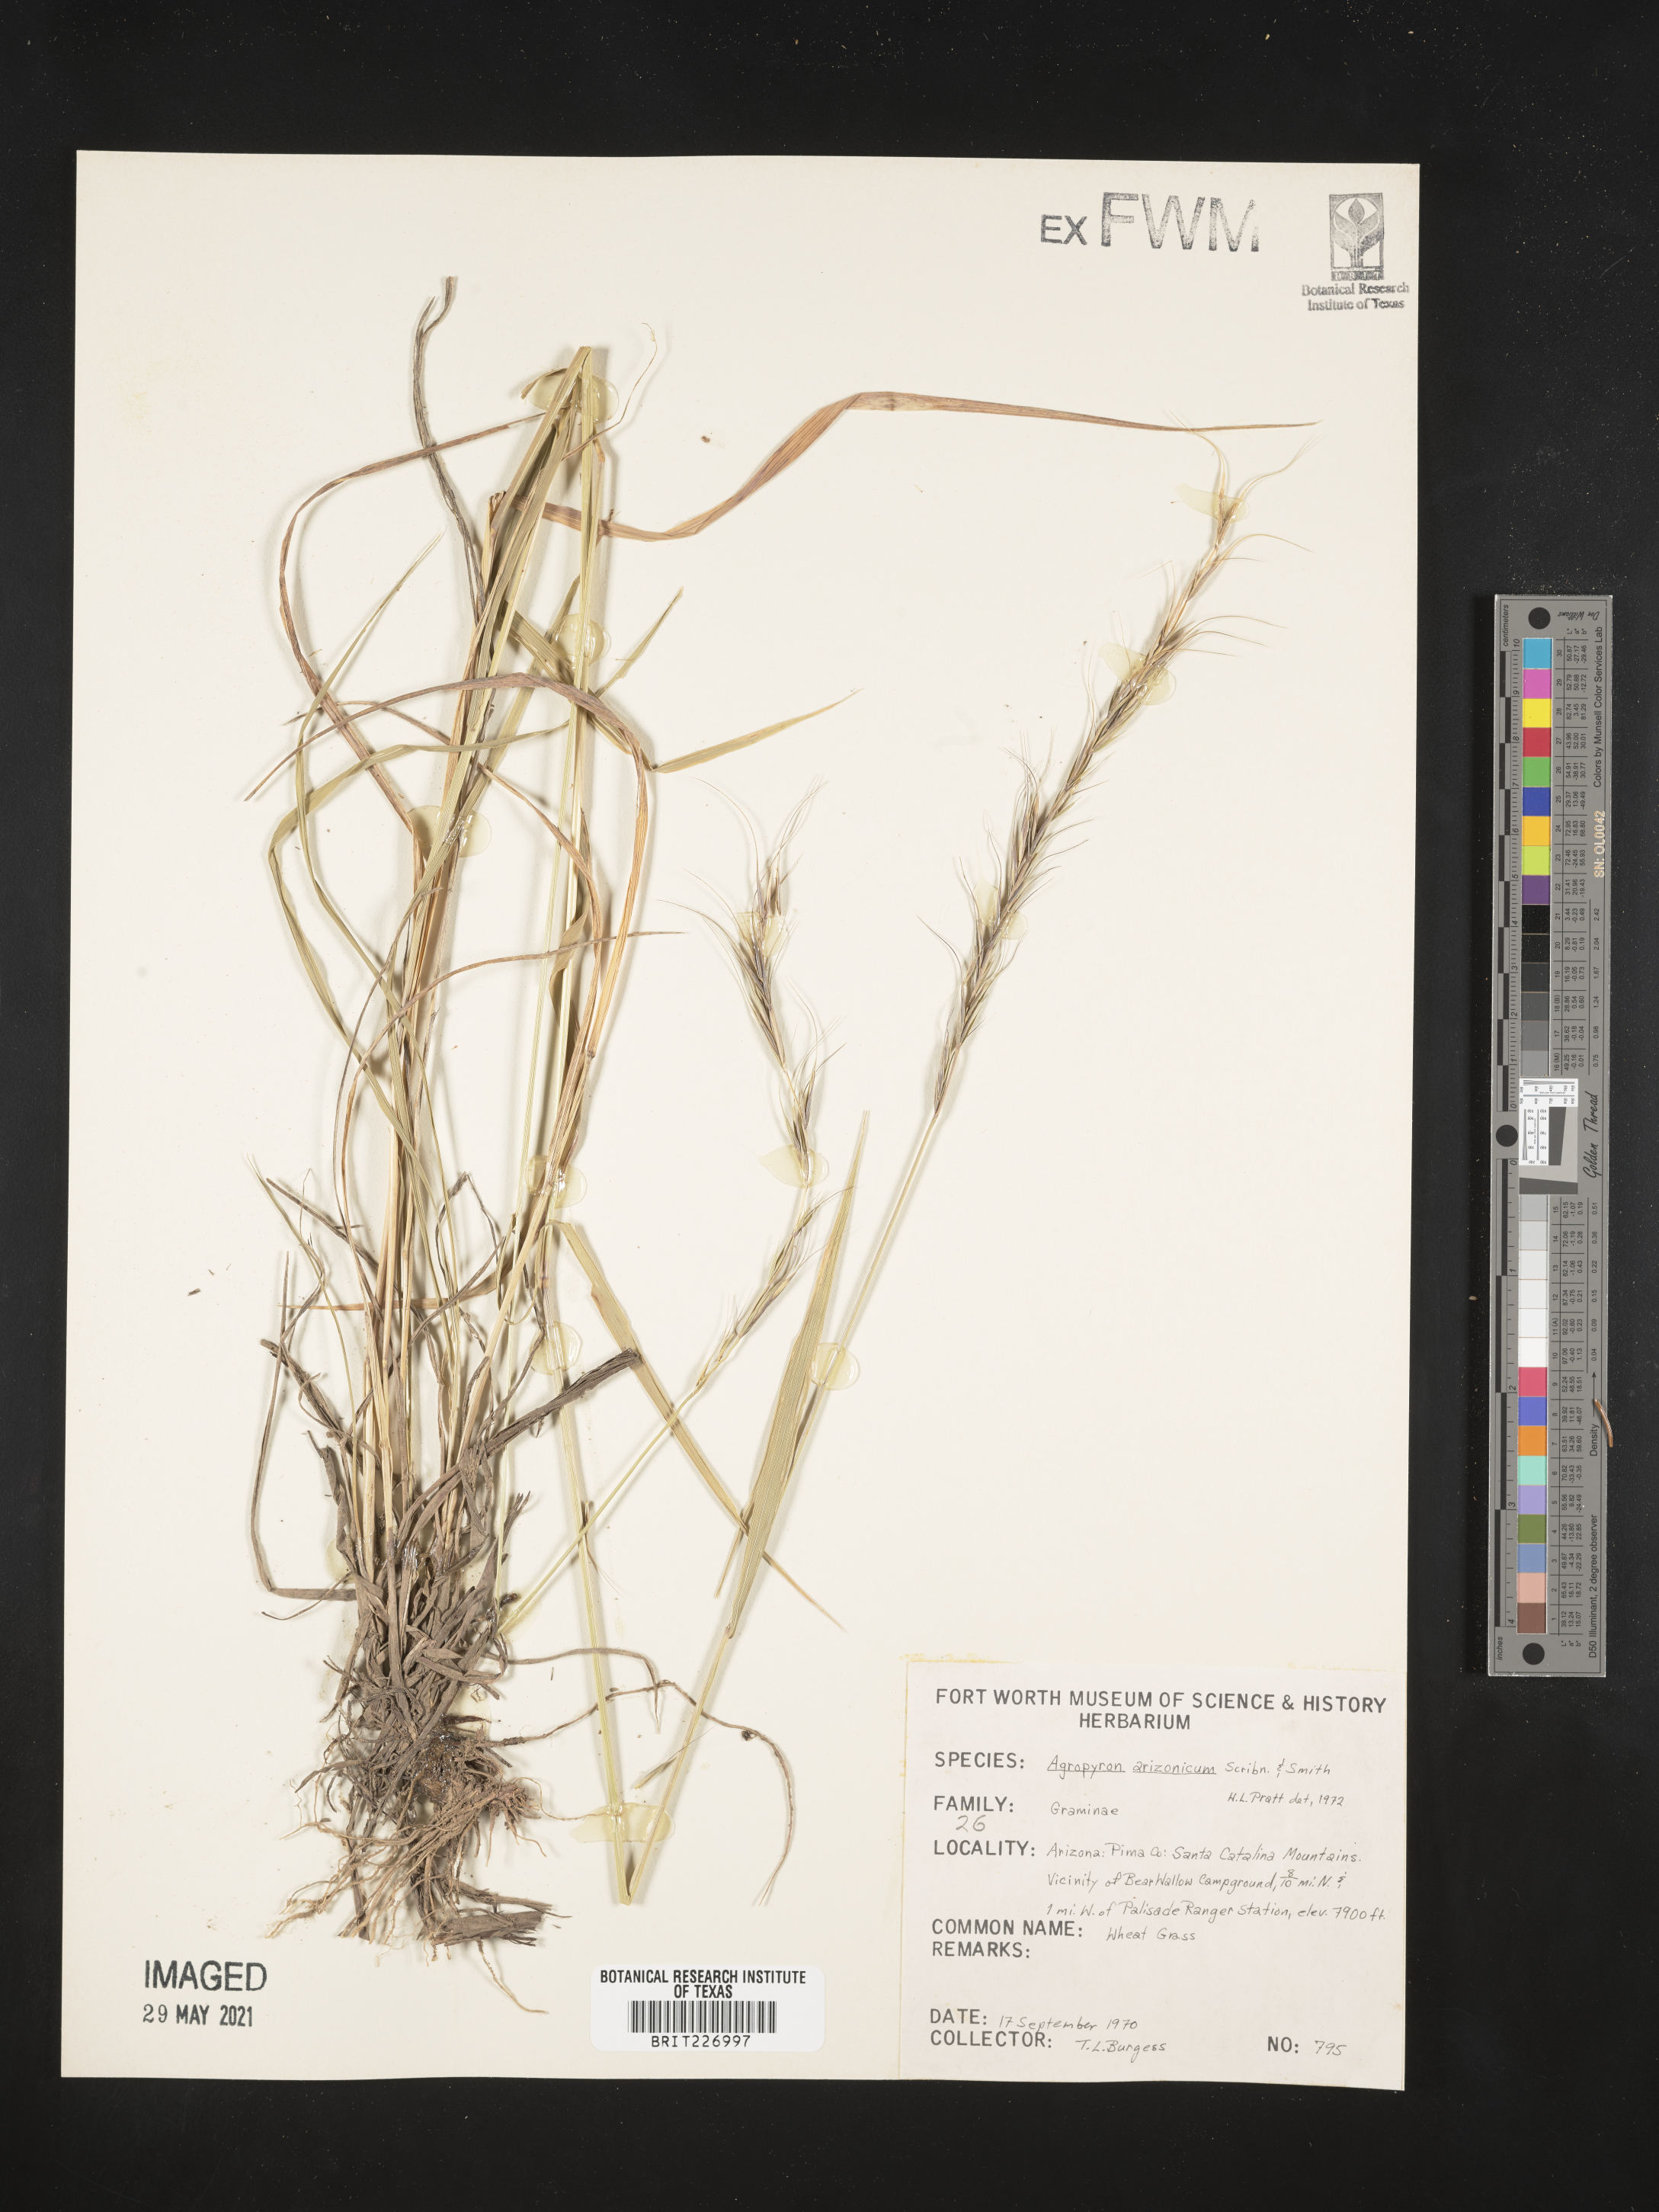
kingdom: Plantae
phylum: Tracheophyta
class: Liliopsida
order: Poales
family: Poaceae
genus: Elymus
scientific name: Elymus arizonicus
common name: Arizona wheatgrass
